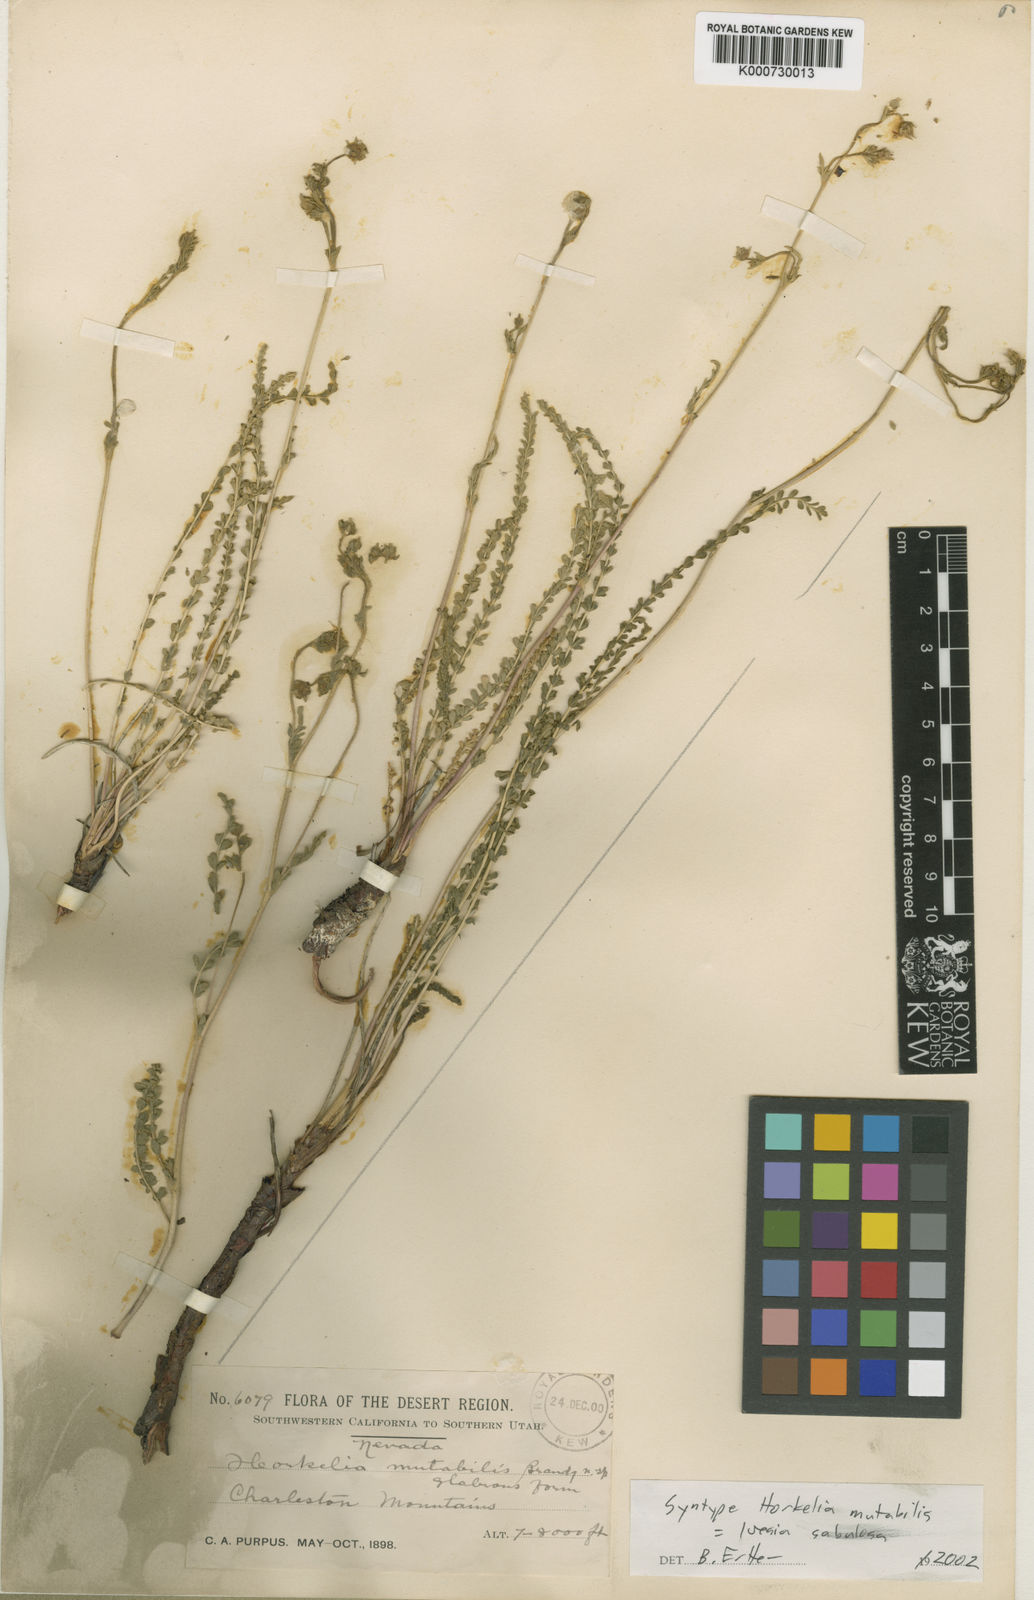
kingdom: Plantae
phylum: Tracheophyta
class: Magnoliopsida
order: Rosales
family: Rosaceae
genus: Potentilla
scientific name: Potentilla sabulosa
